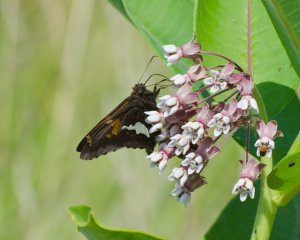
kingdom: Animalia
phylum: Arthropoda
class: Insecta
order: Lepidoptera
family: Hesperiidae
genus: Epargyreus
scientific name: Epargyreus clarus
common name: Silver-spotted Skipper
